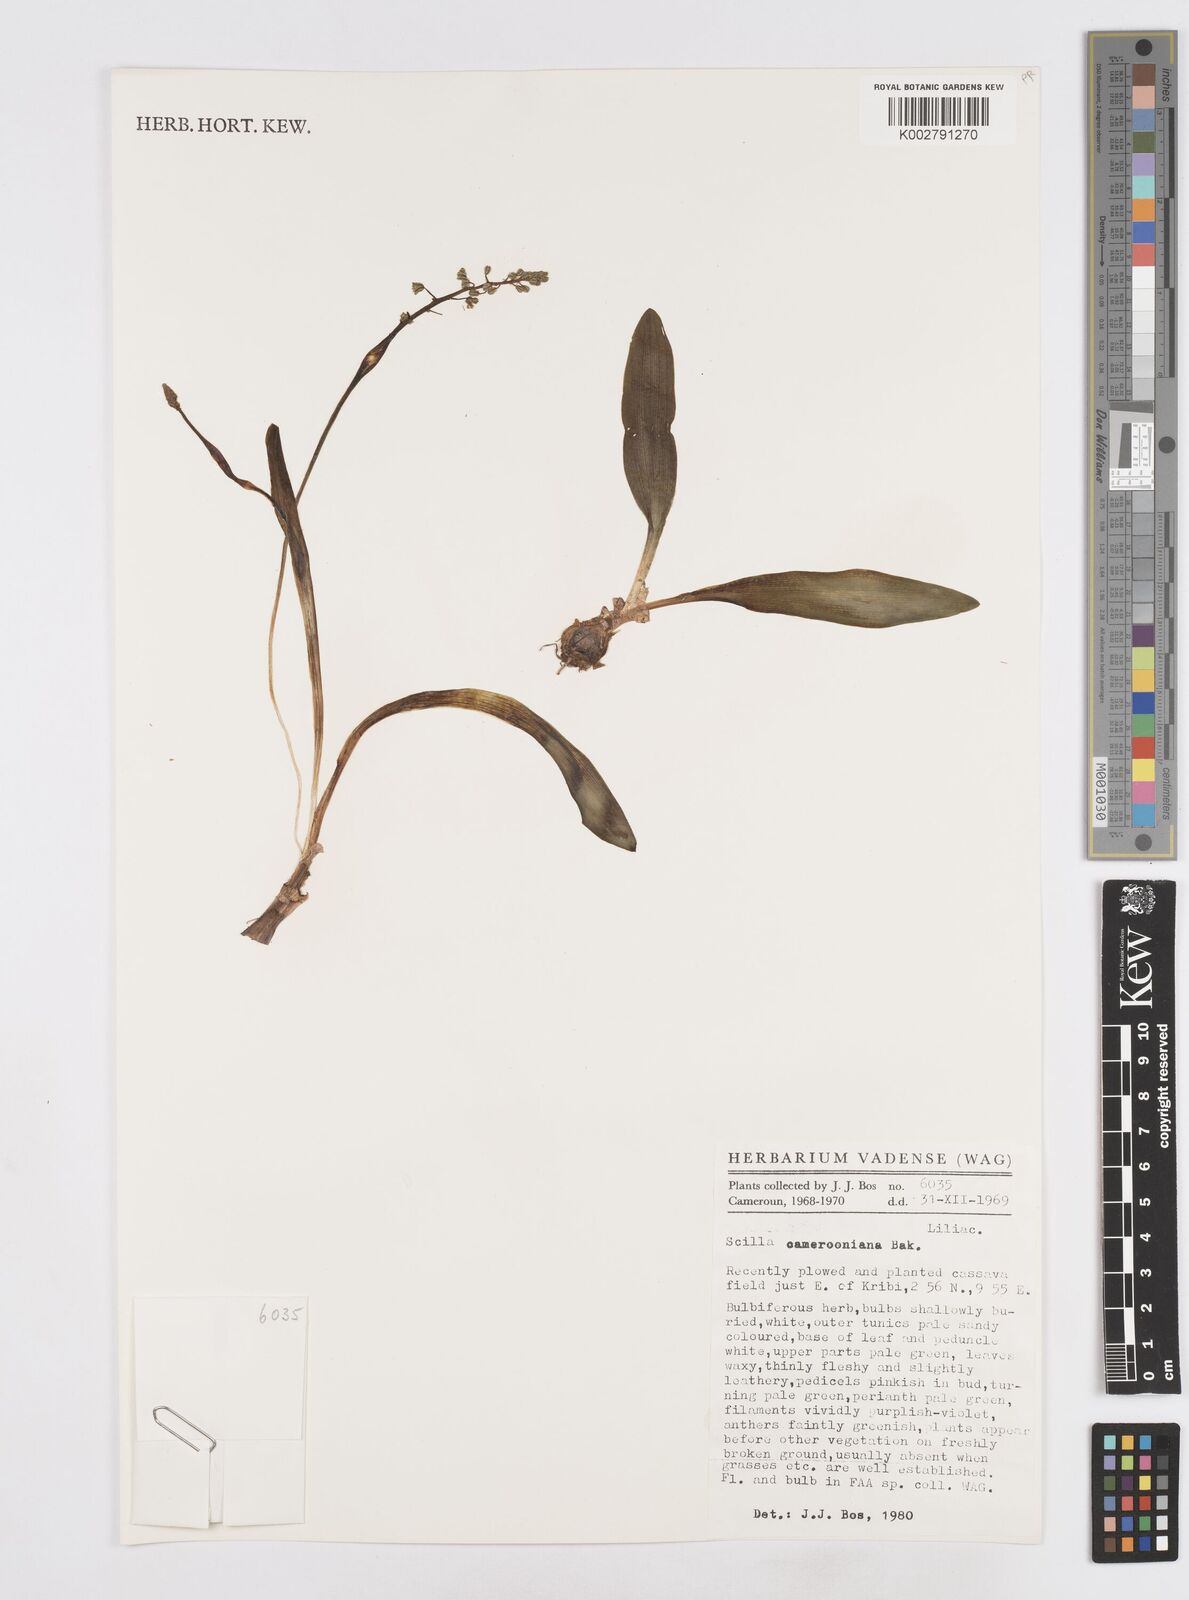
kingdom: Plantae
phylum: Tracheophyta
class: Liliopsida
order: Asparagales
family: Asparagaceae
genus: Ledebouria
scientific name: Ledebouria camerooniana
